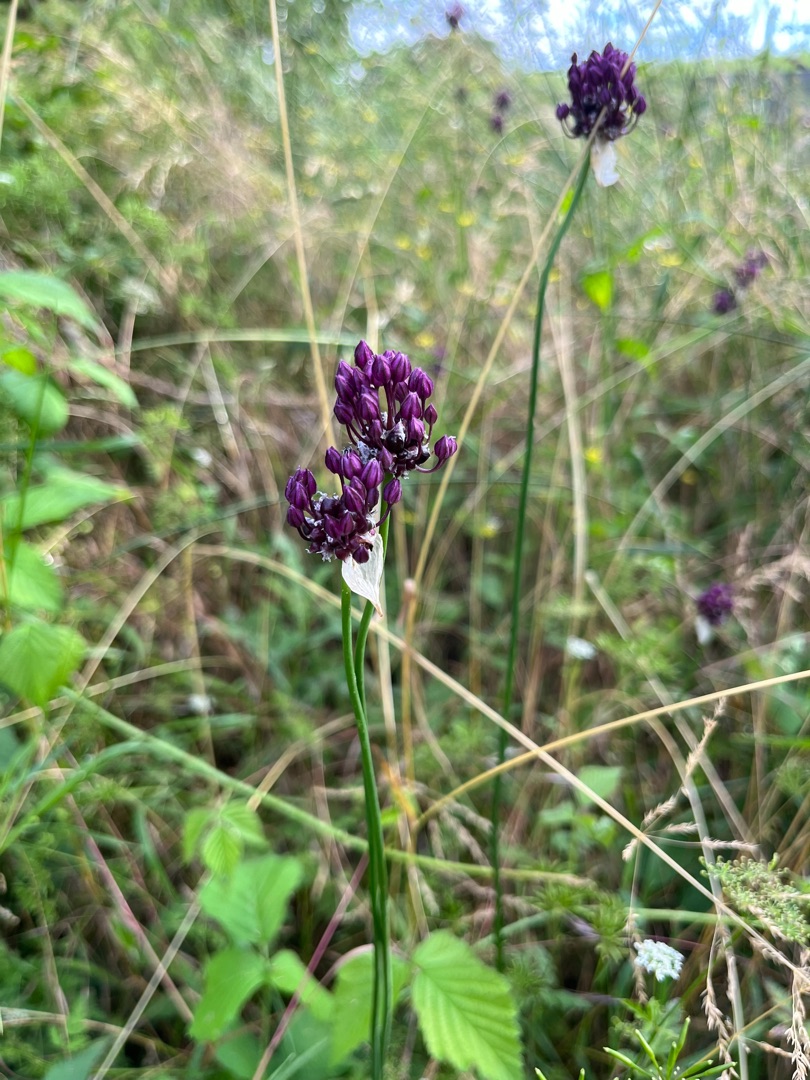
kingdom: Plantae
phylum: Tracheophyta
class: Liliopsida
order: Asparagales
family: Amaryllidaceae
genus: Allium
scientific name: Allium scorodoprasum
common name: Skov-løg
